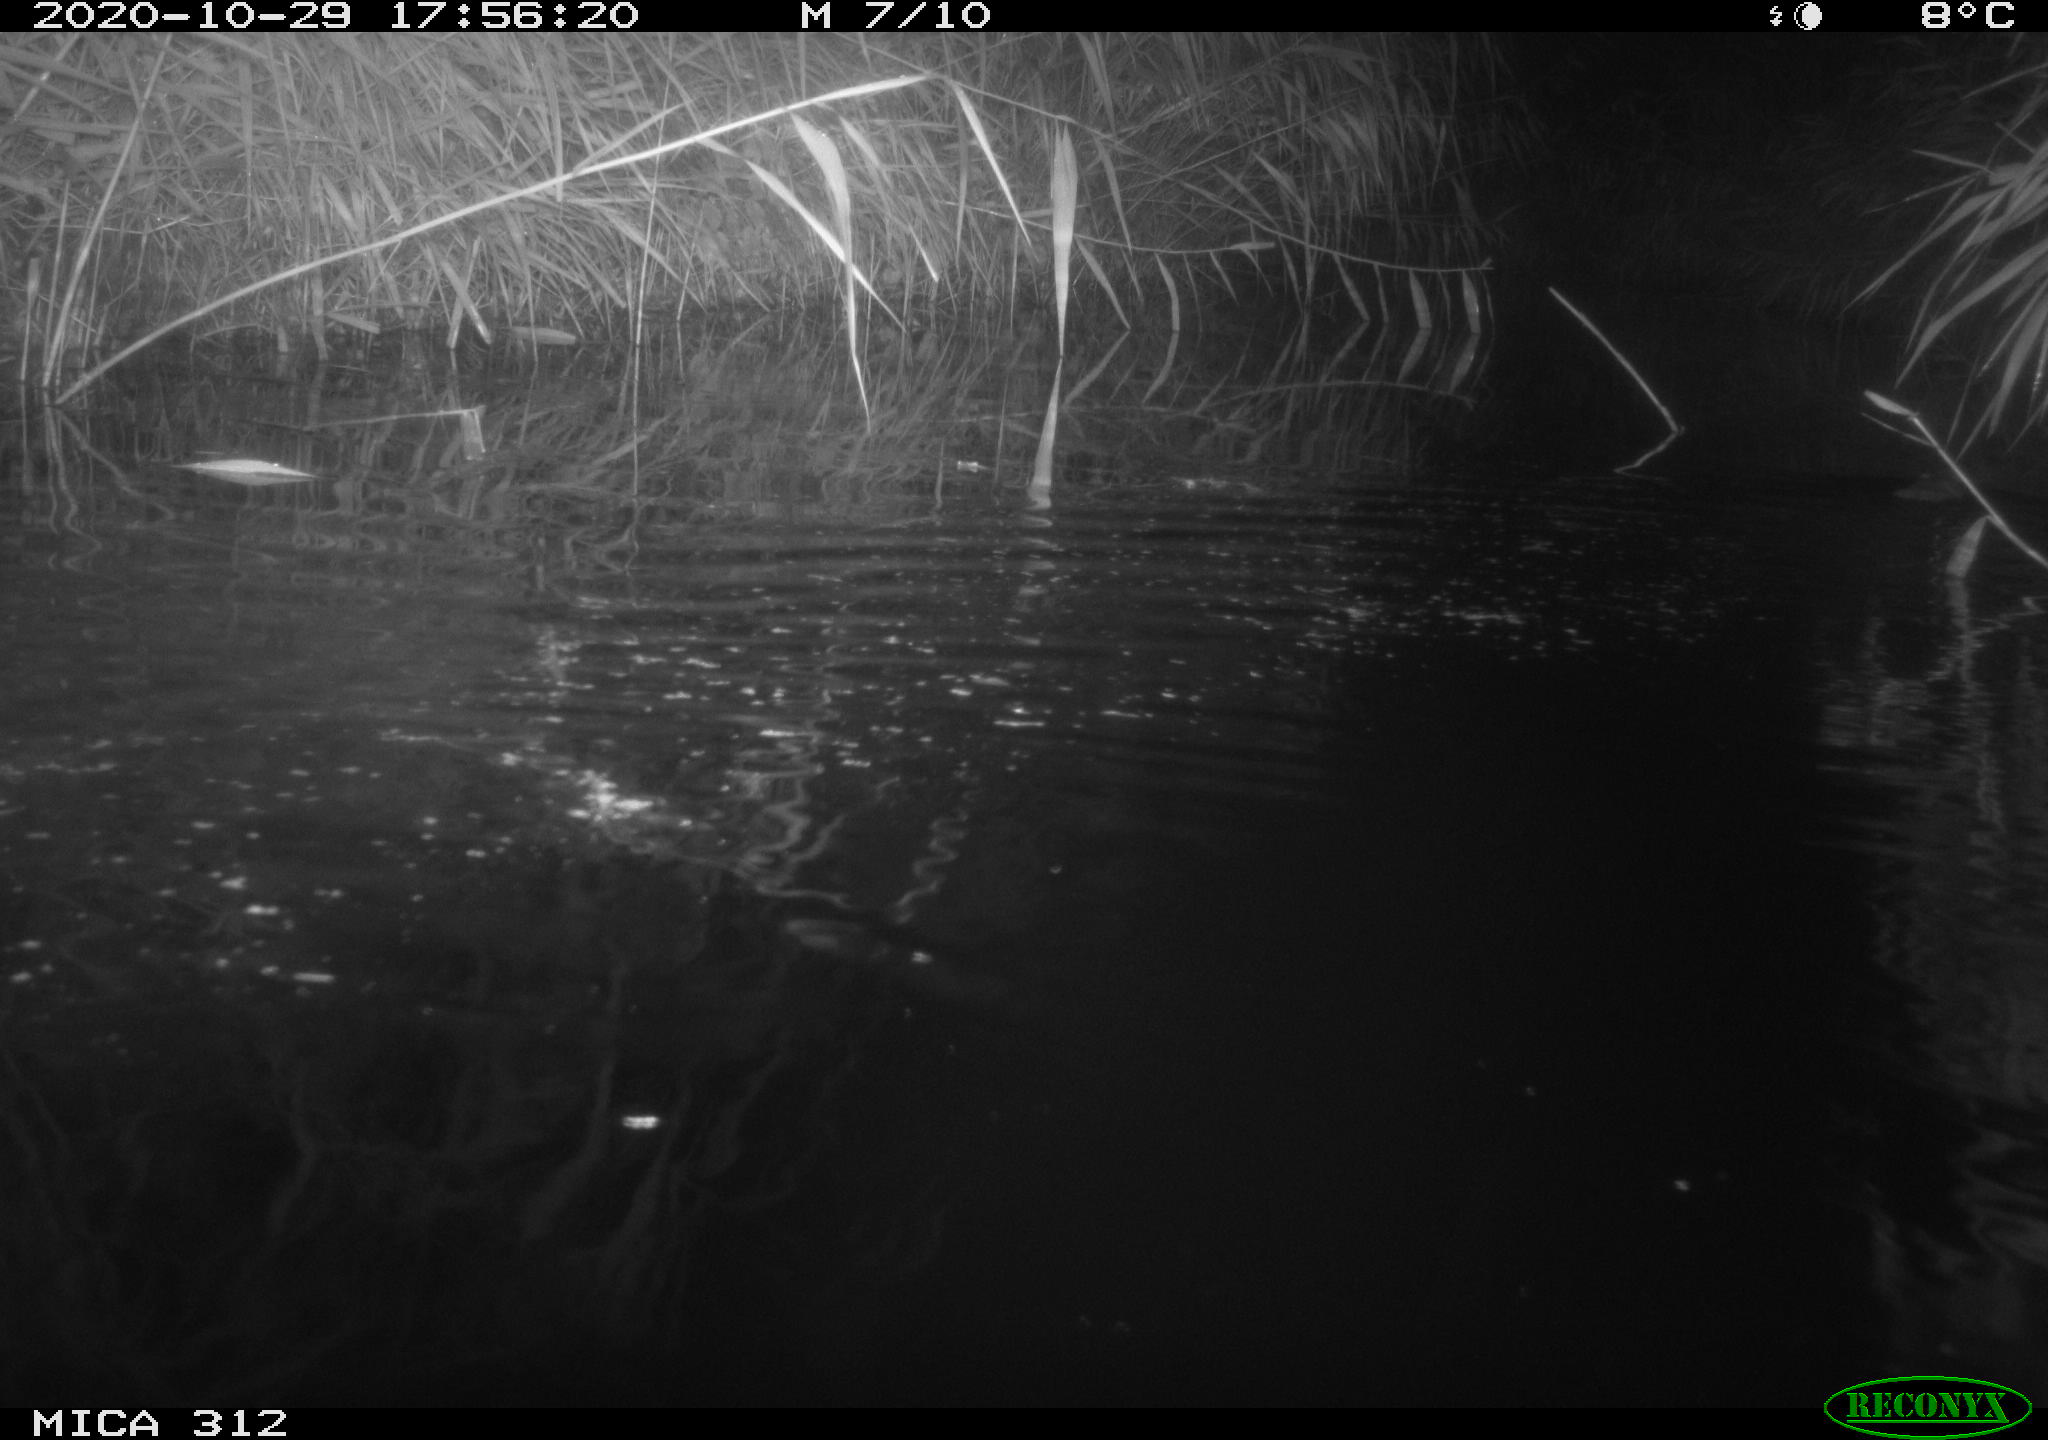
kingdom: Animalia
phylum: Chordata
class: Mammalia
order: Rodentia
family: Muridae
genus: Rattus
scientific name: Rattus norvegicus
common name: Brown rat
